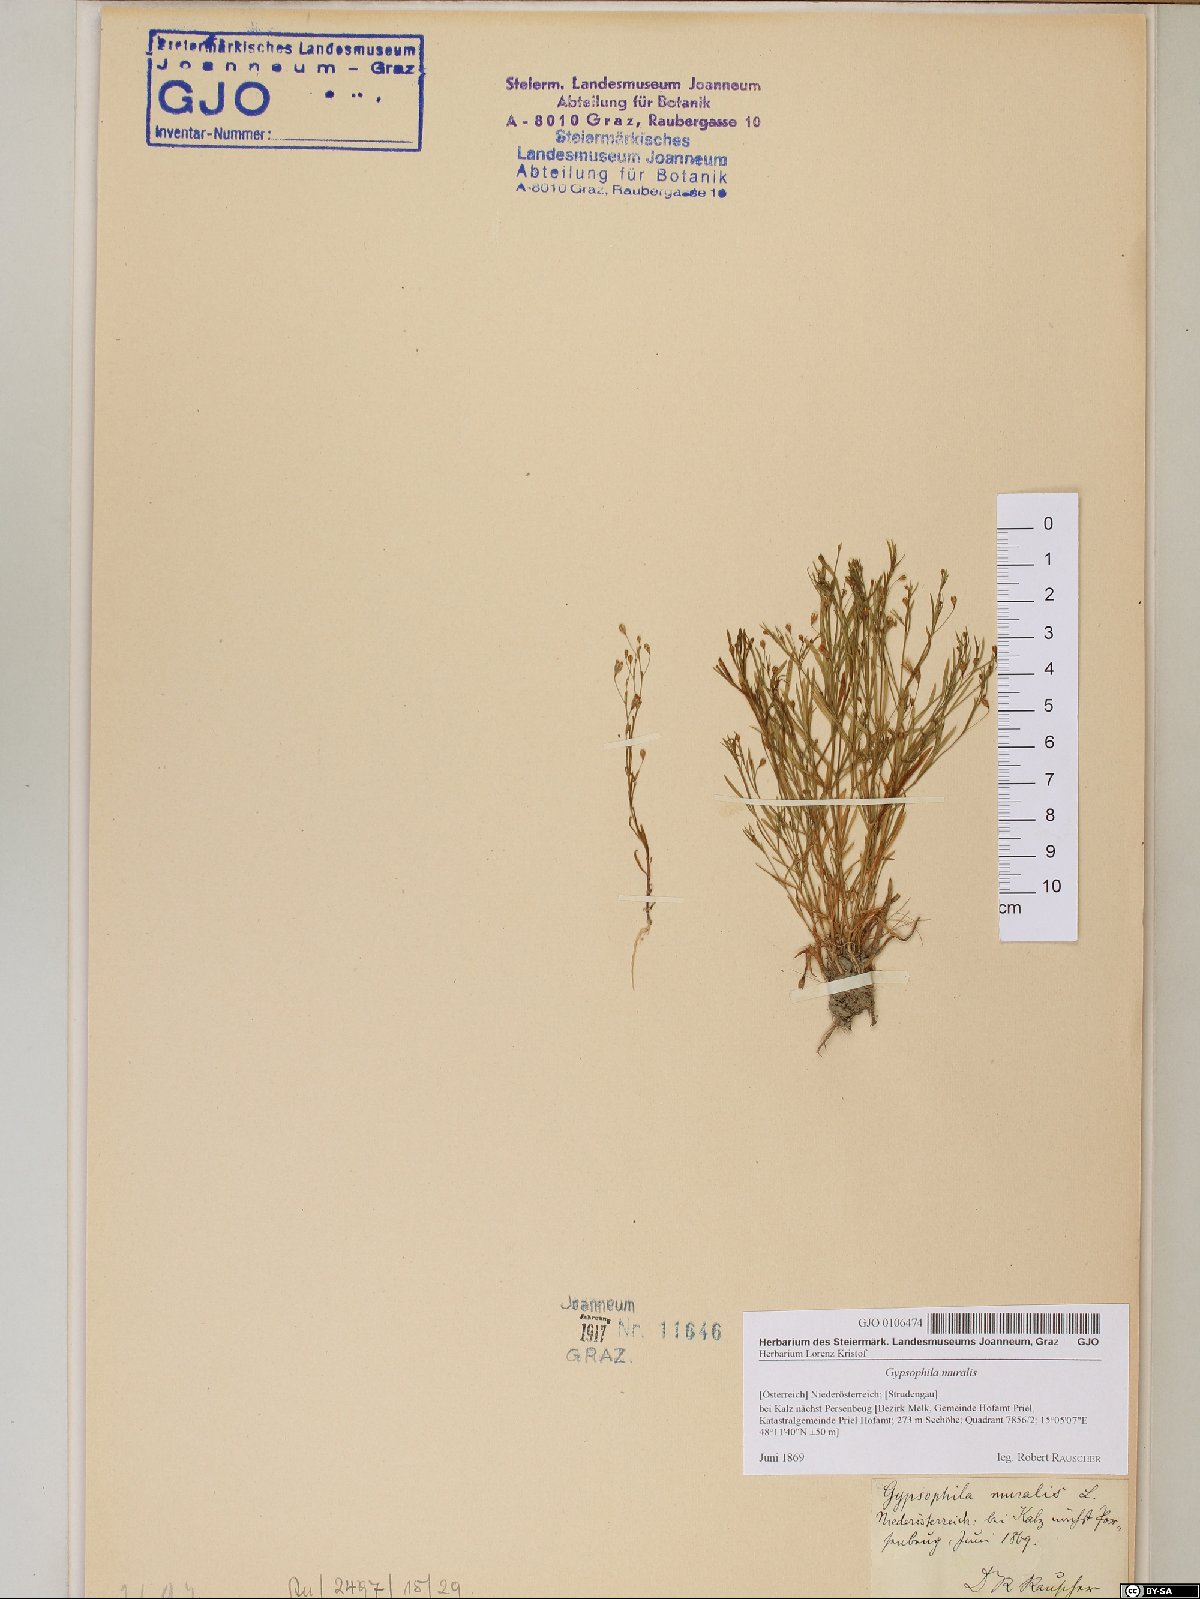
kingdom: Plantae
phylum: Tracheophyta
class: Magnoliopsida
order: Caryophyllales
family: Caryophyllaceae
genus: Psammophiliella
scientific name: Psammophiliella muralis
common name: Cushion baby's-breath
